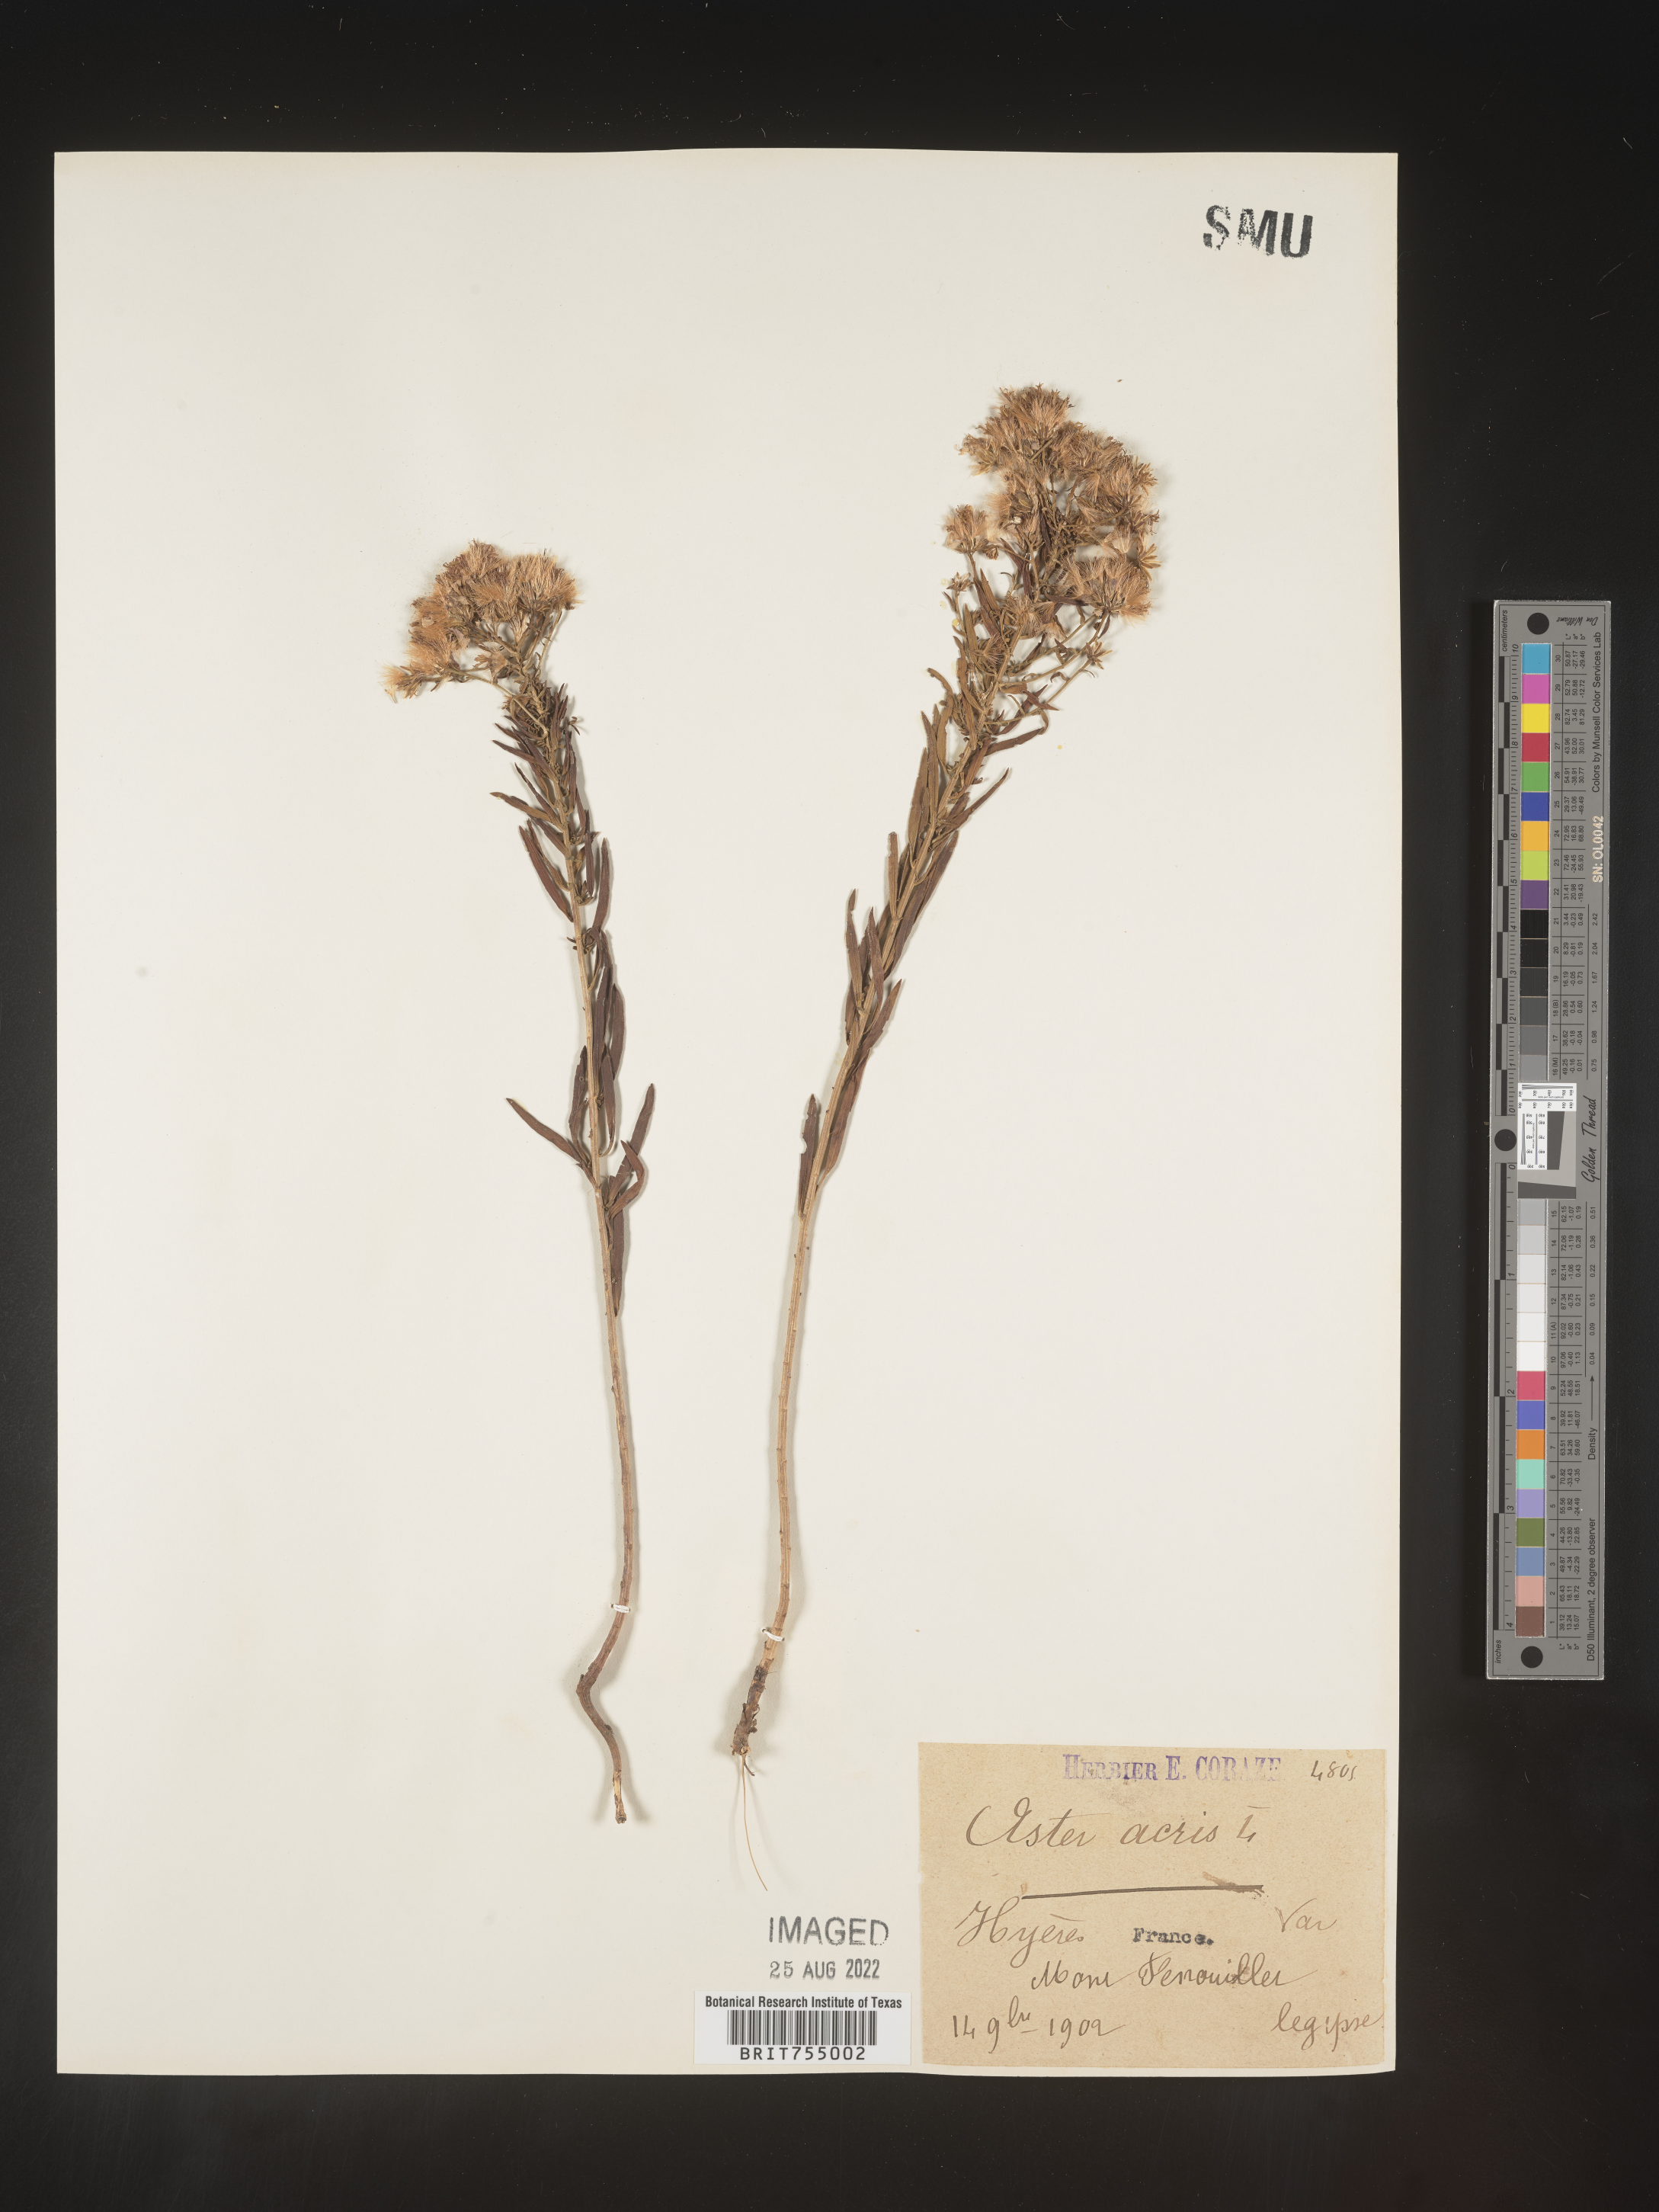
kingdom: Plantae
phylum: Tracheophyta
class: Magnoliopsida
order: Asterales
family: Asteraceae
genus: Symphyotrichum
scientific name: Symphyotrichum
